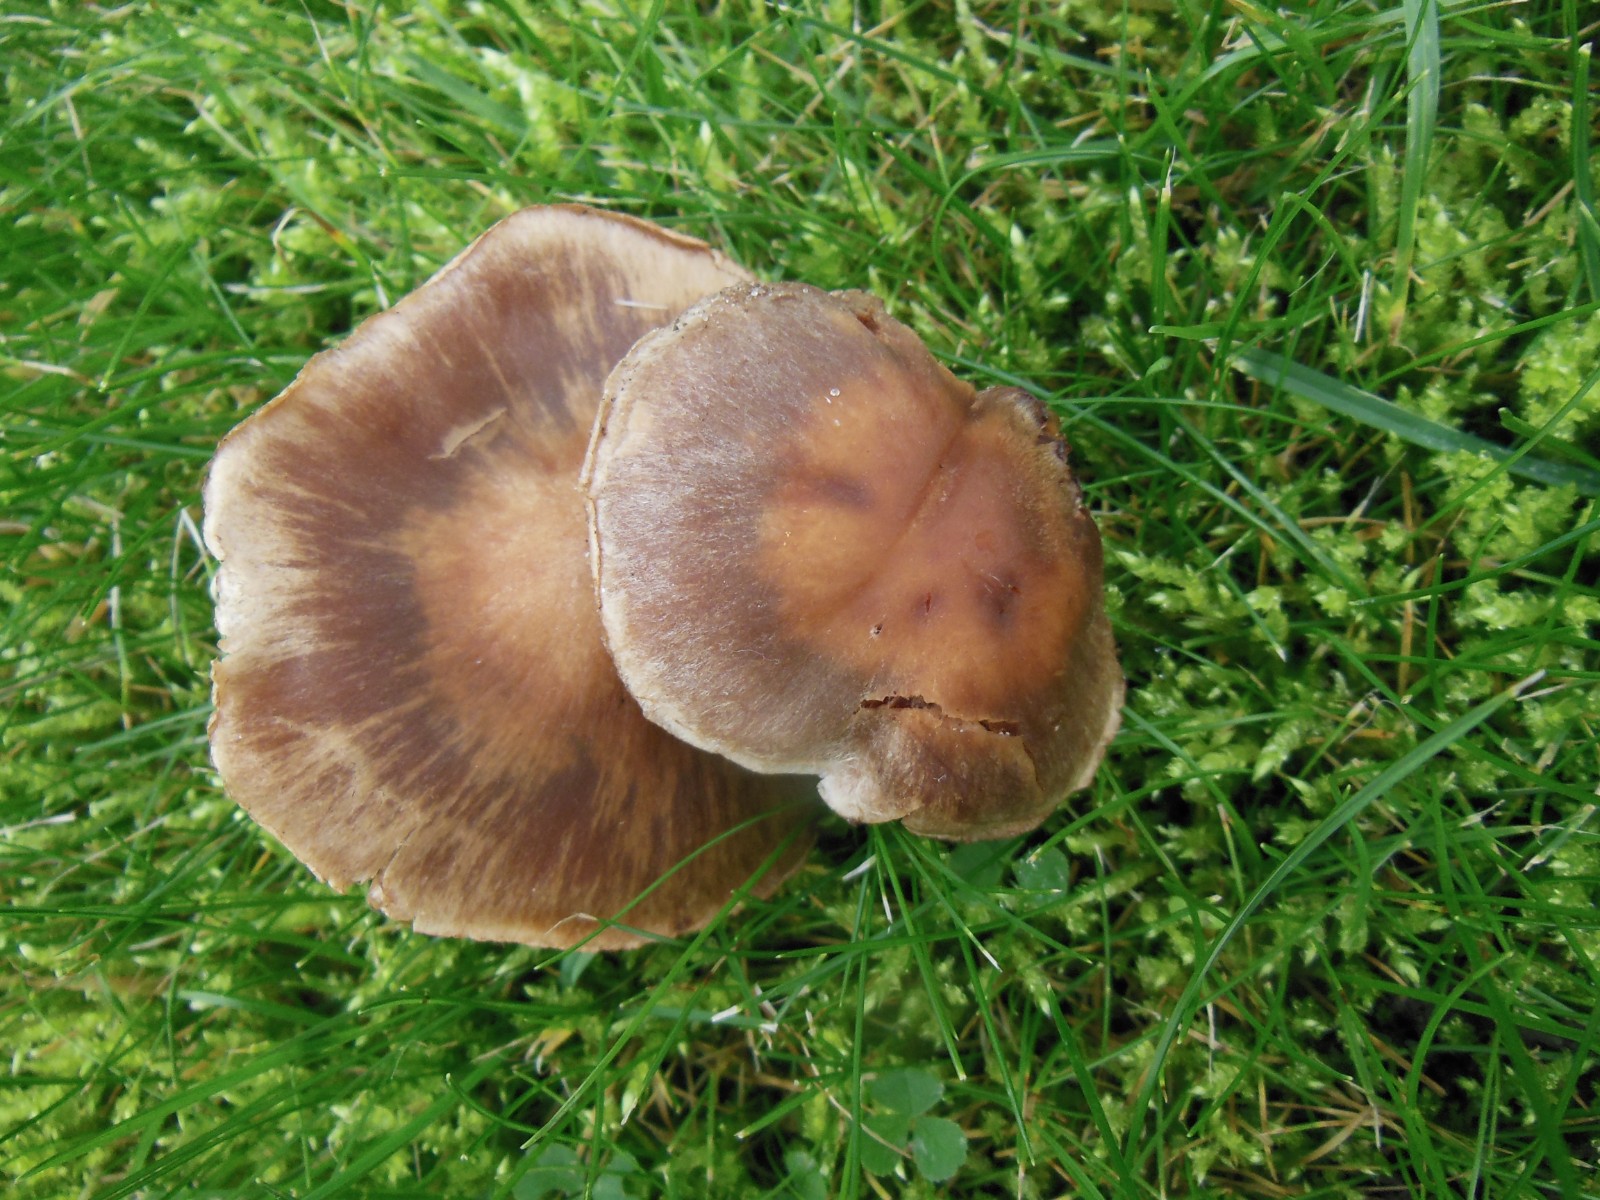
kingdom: Fungi
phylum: Basidiomycota
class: Agaricomycetes
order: Agaricales
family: Cortinariaceae
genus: Cortinarius
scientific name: Cortinarius dolabratus
